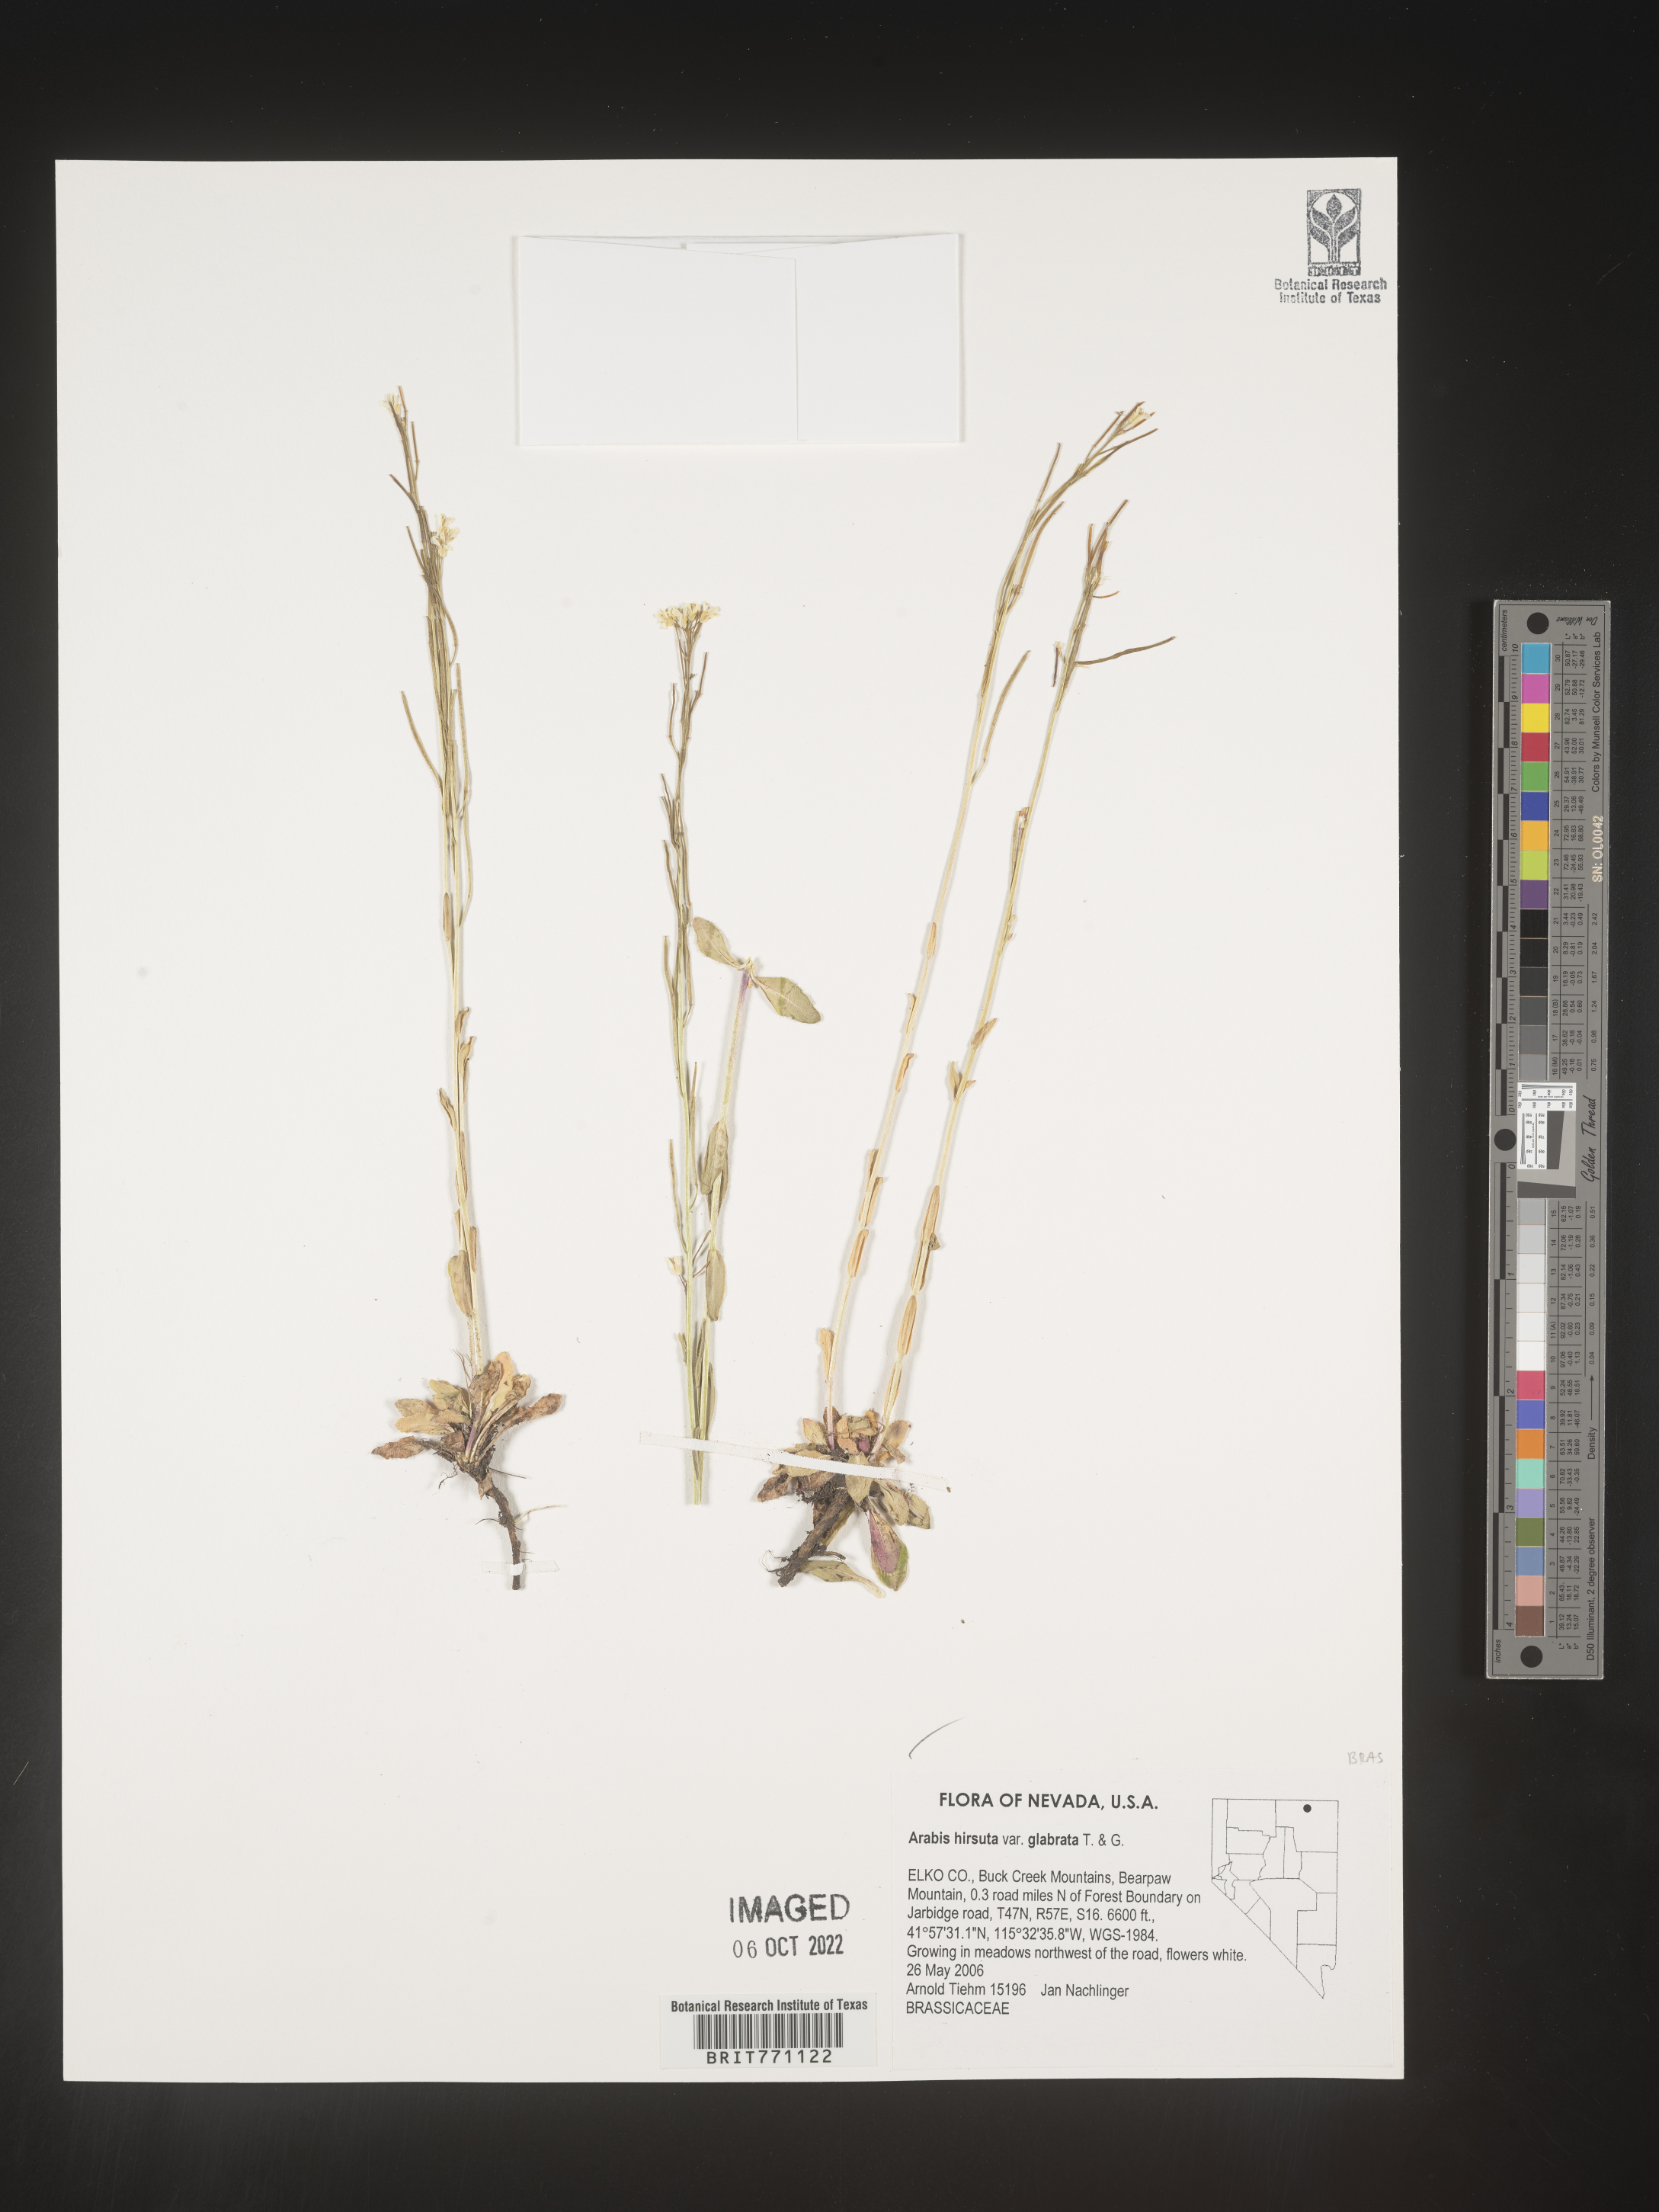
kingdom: Plantae
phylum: Tracheophyta
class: Magnoliopsida
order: Brassicales
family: Brassicaceae
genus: Arabis
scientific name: Arabis hirsuta
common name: Hairy rock-cress
